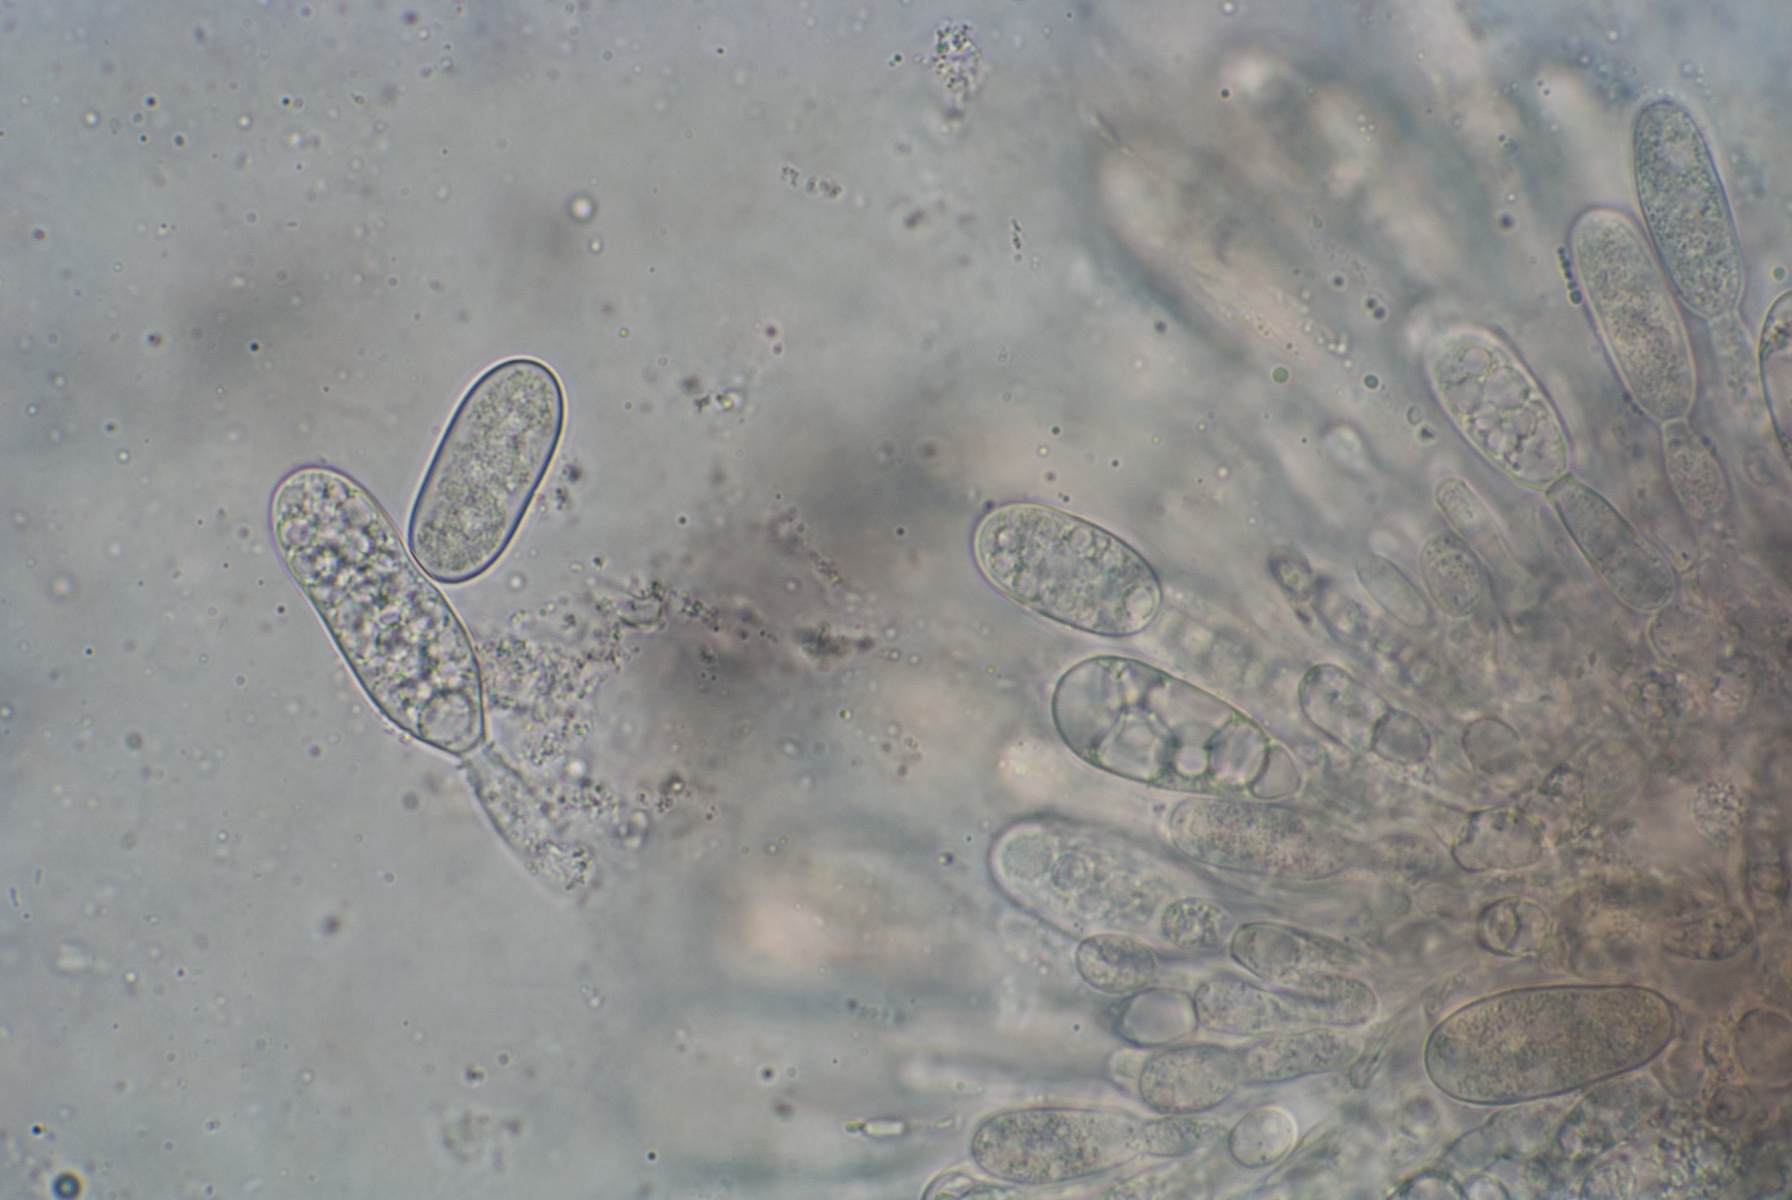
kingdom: Fungi
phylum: Ascomycota
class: Dothideomycetes
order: Botryosphaeriales
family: Botryosphaeriaceae
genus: Botryosphaeria
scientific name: Botryosphaeria stevensii
